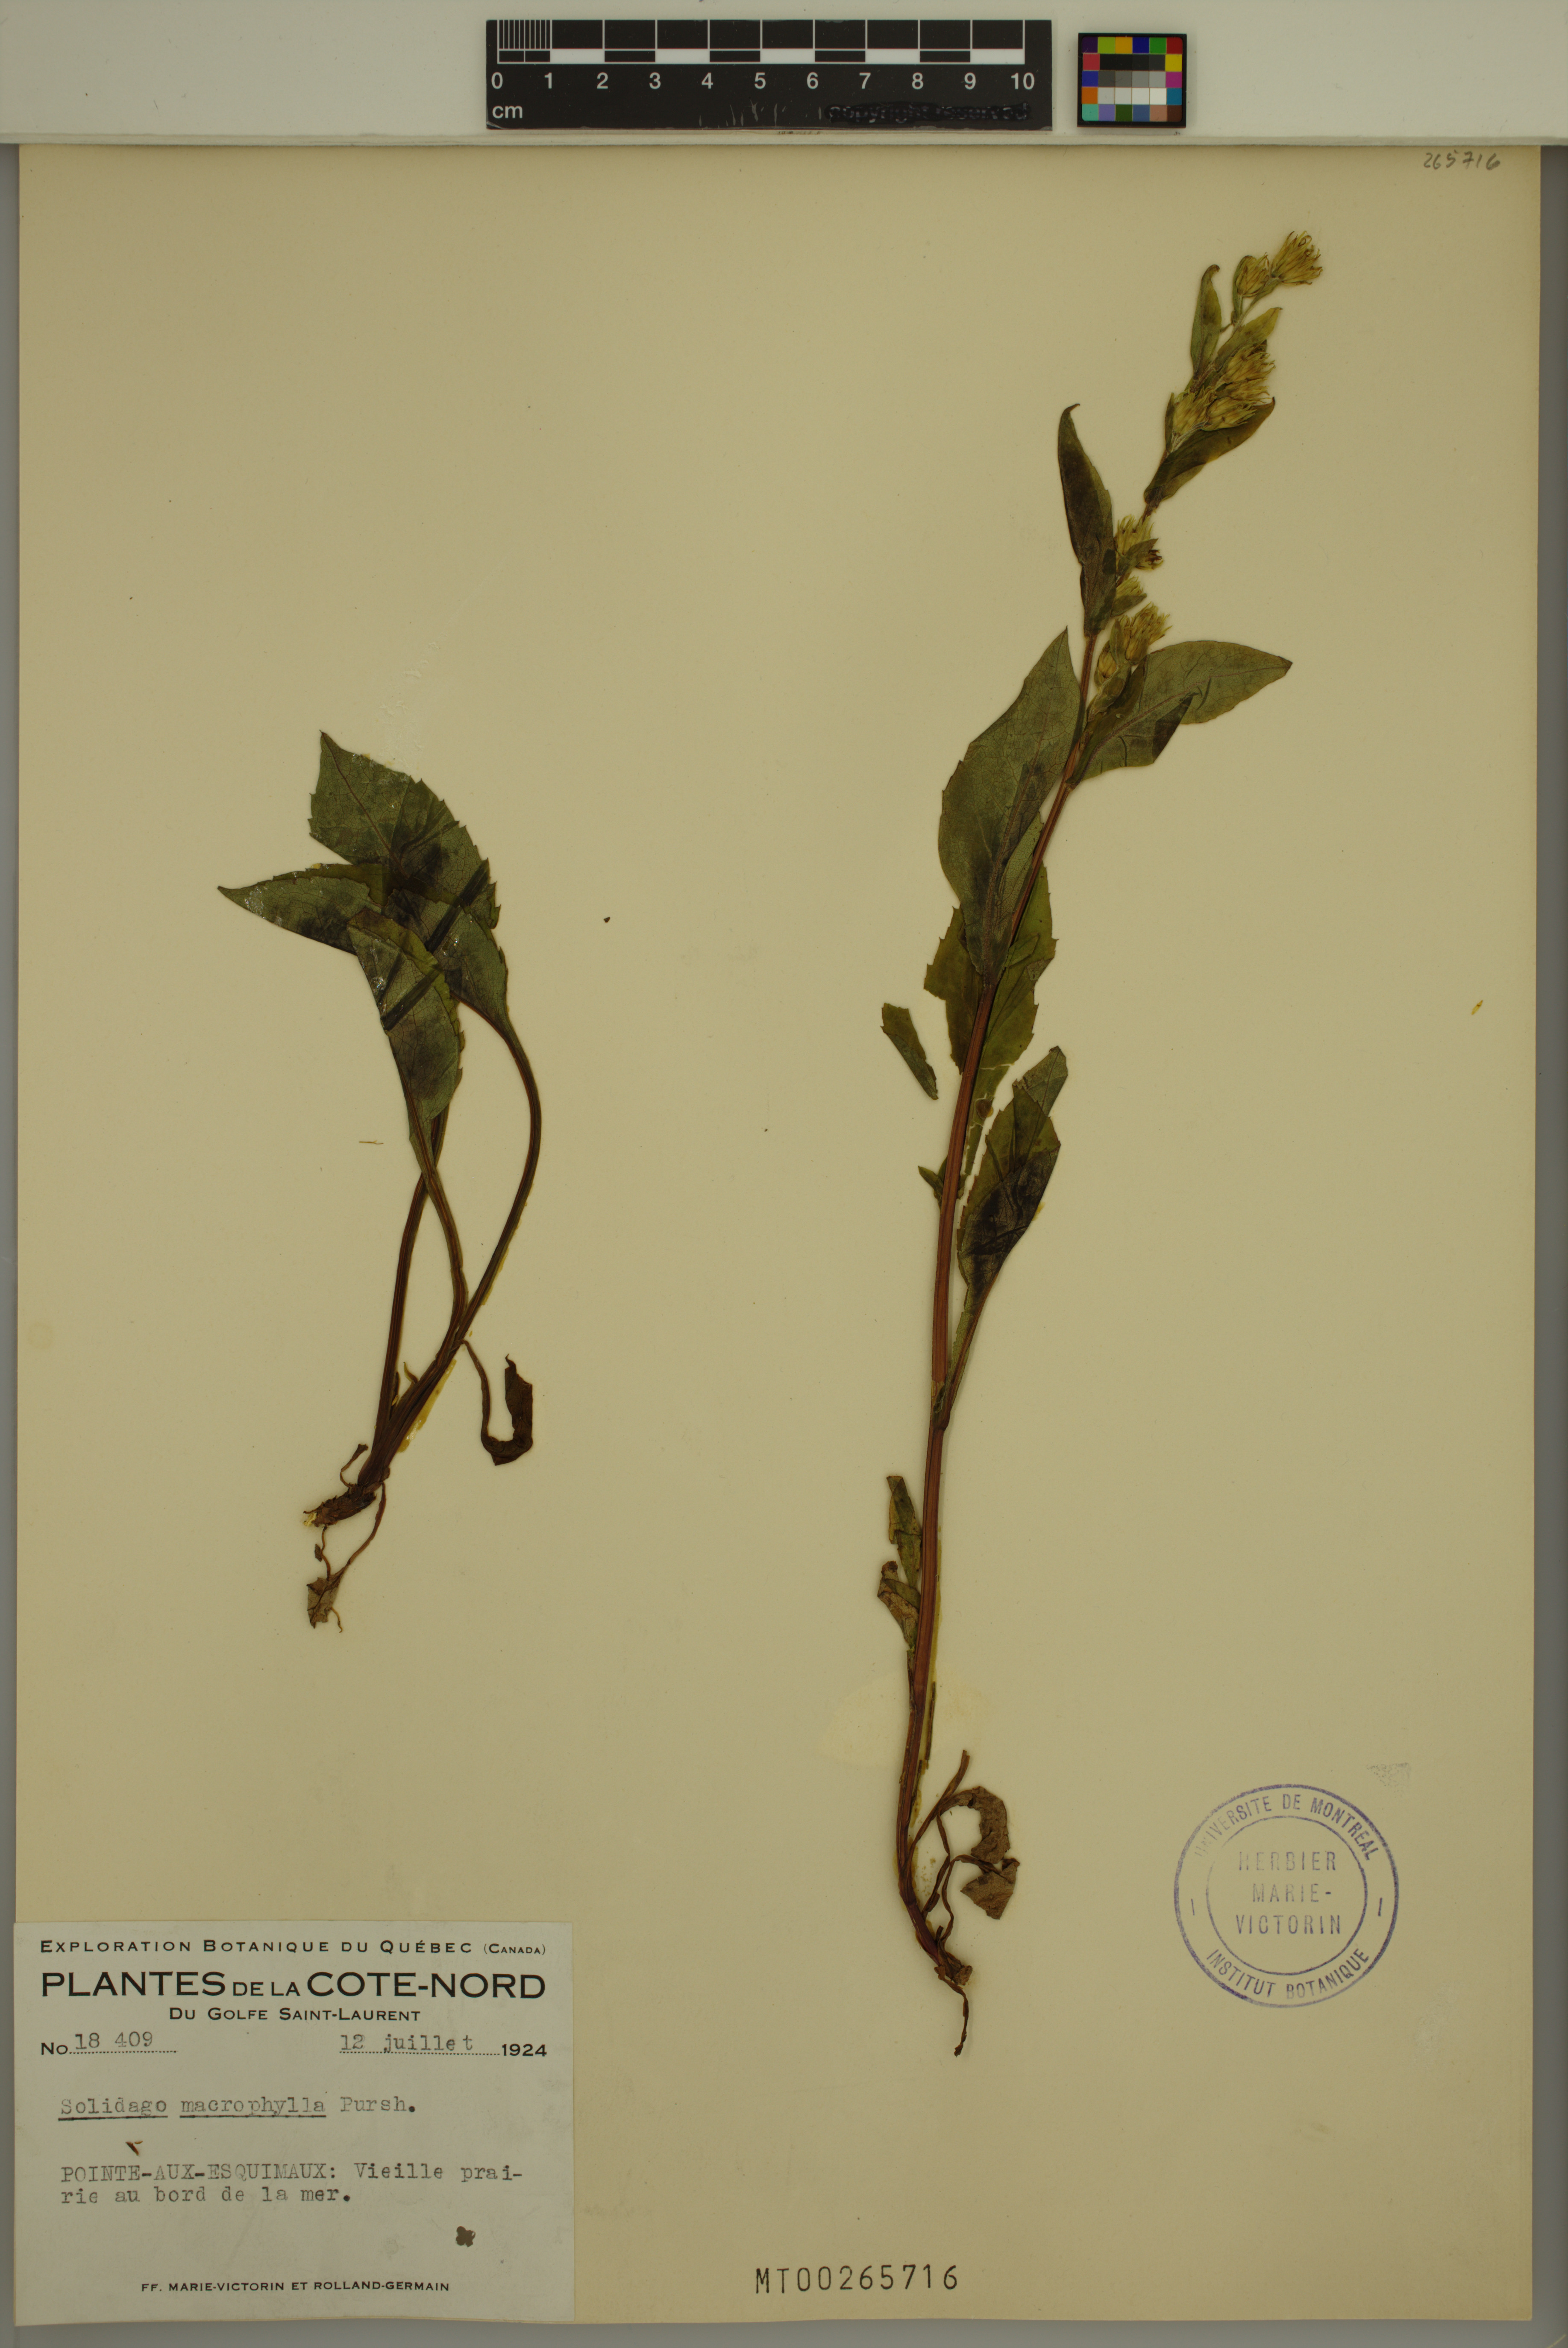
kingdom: Plantae
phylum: Tracheophyta
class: Magnoliopsida
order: Asterales
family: Asteraceae
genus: Solidago
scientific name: Solidago macrophylla
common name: Large-leaved goldenrod
